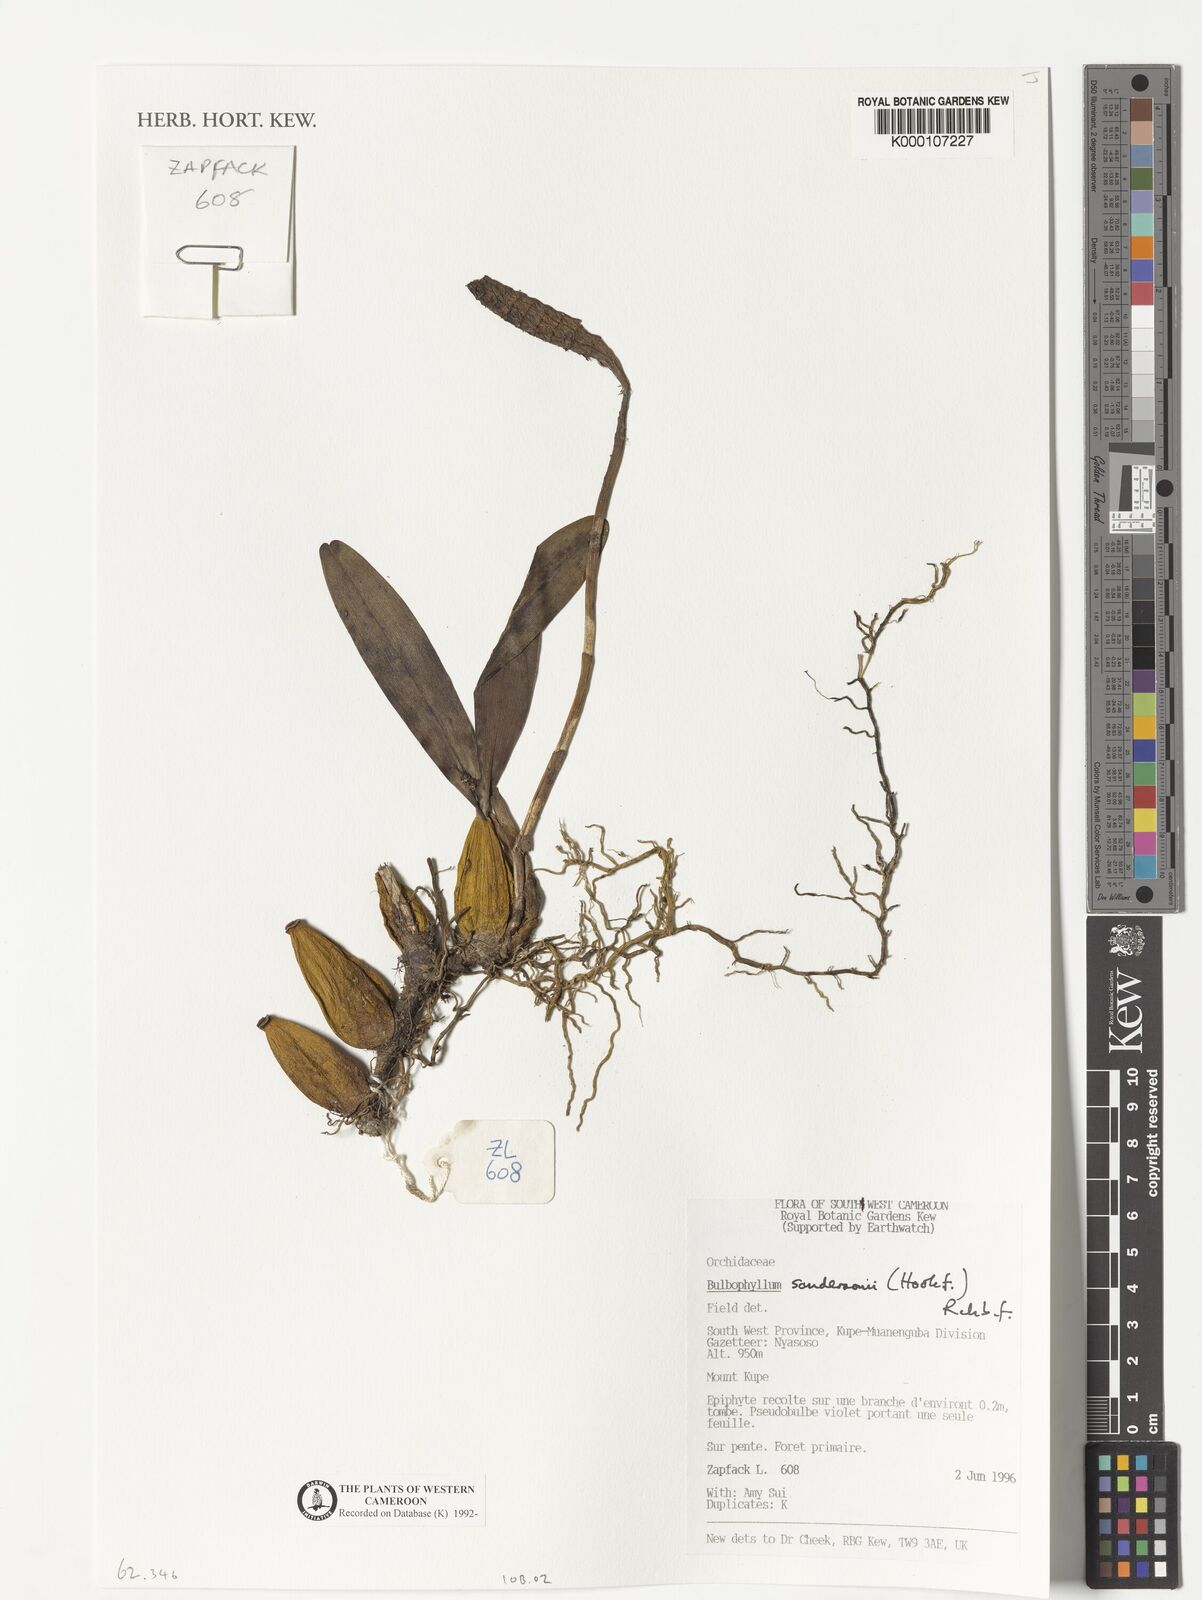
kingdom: Plantae
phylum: Tracheophyta
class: Liliopsida
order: Asparagales
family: Orchidaceae
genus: Bulbophyllum
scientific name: Bulbophyllum sandersonii
